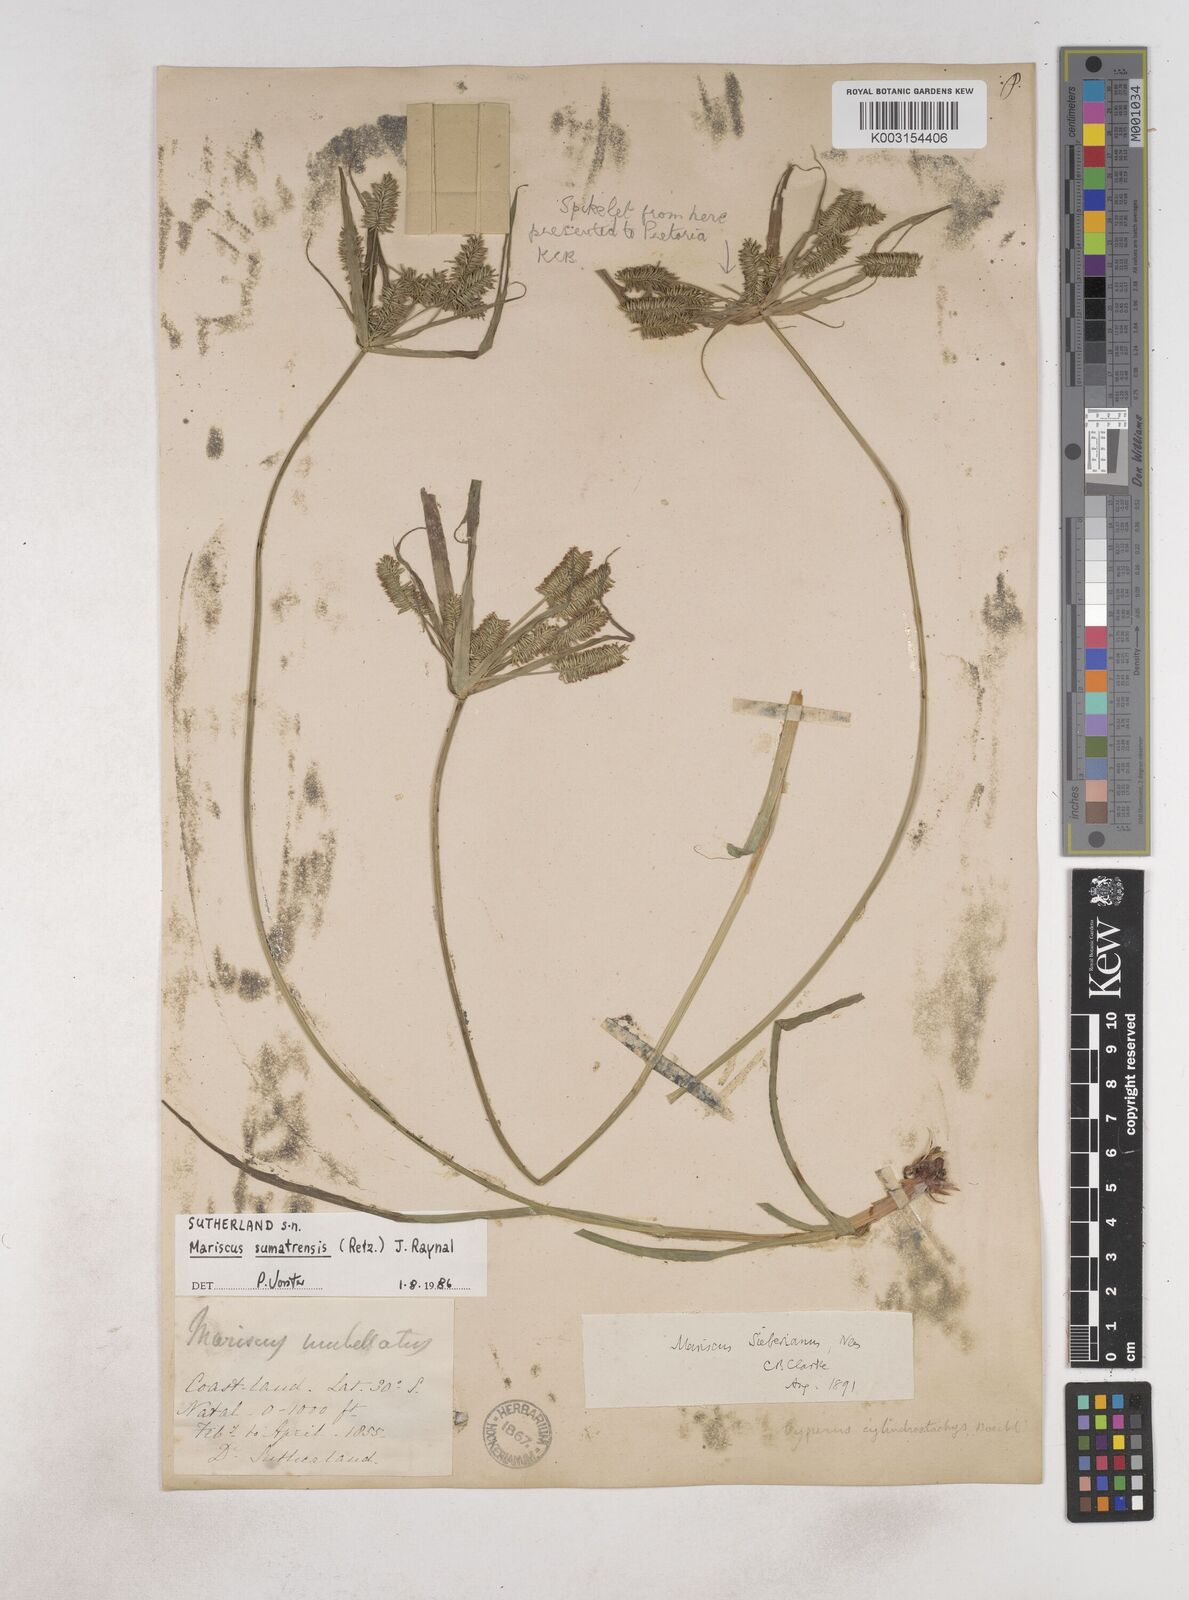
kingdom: Plantae
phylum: Tracheophyta
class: Liliopsida
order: Poales
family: Cyperaceae
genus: Cyperus
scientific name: Cyperus cyperoides
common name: Pacific island flat sedge
